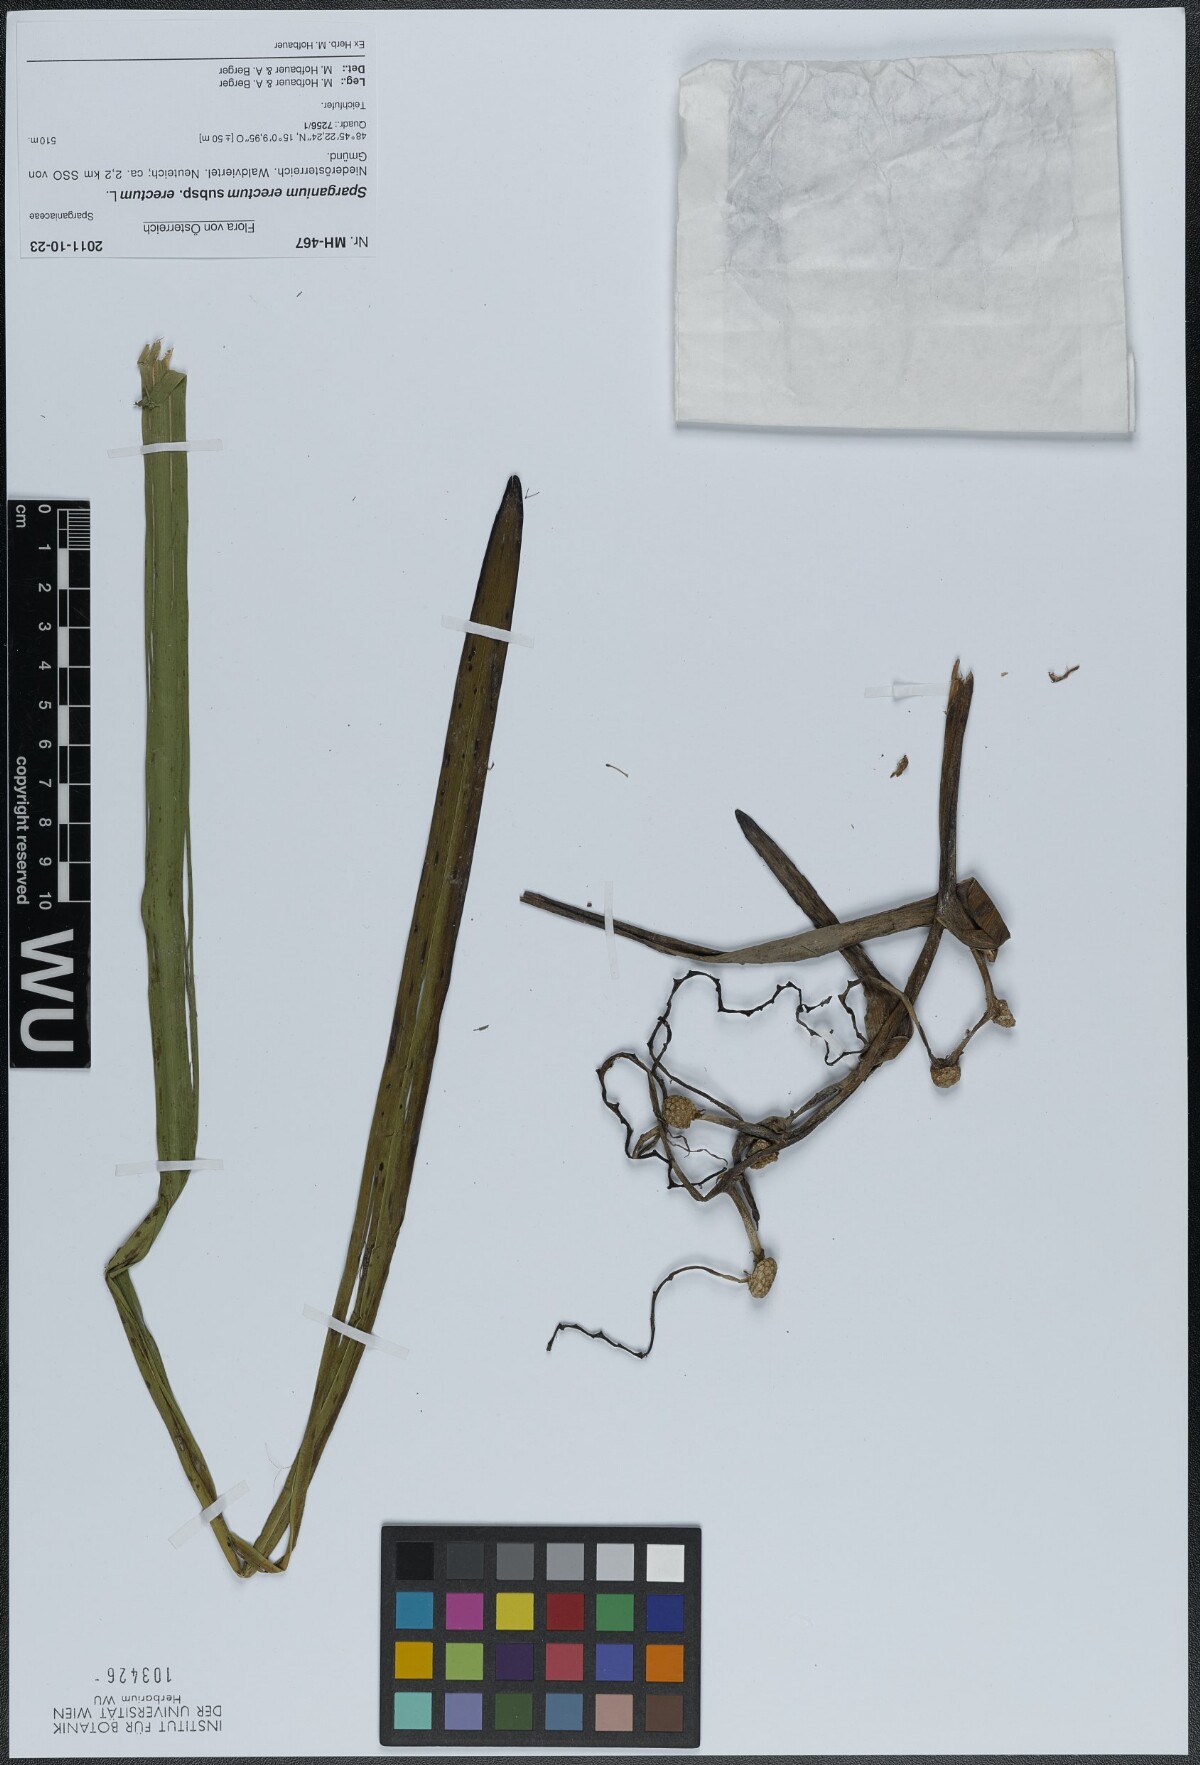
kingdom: Plantae
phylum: Tracheophyta
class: Liliopsida
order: Poales
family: Typhaceae
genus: Sparganium
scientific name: Sparganium erectum
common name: Branched bur-reed
